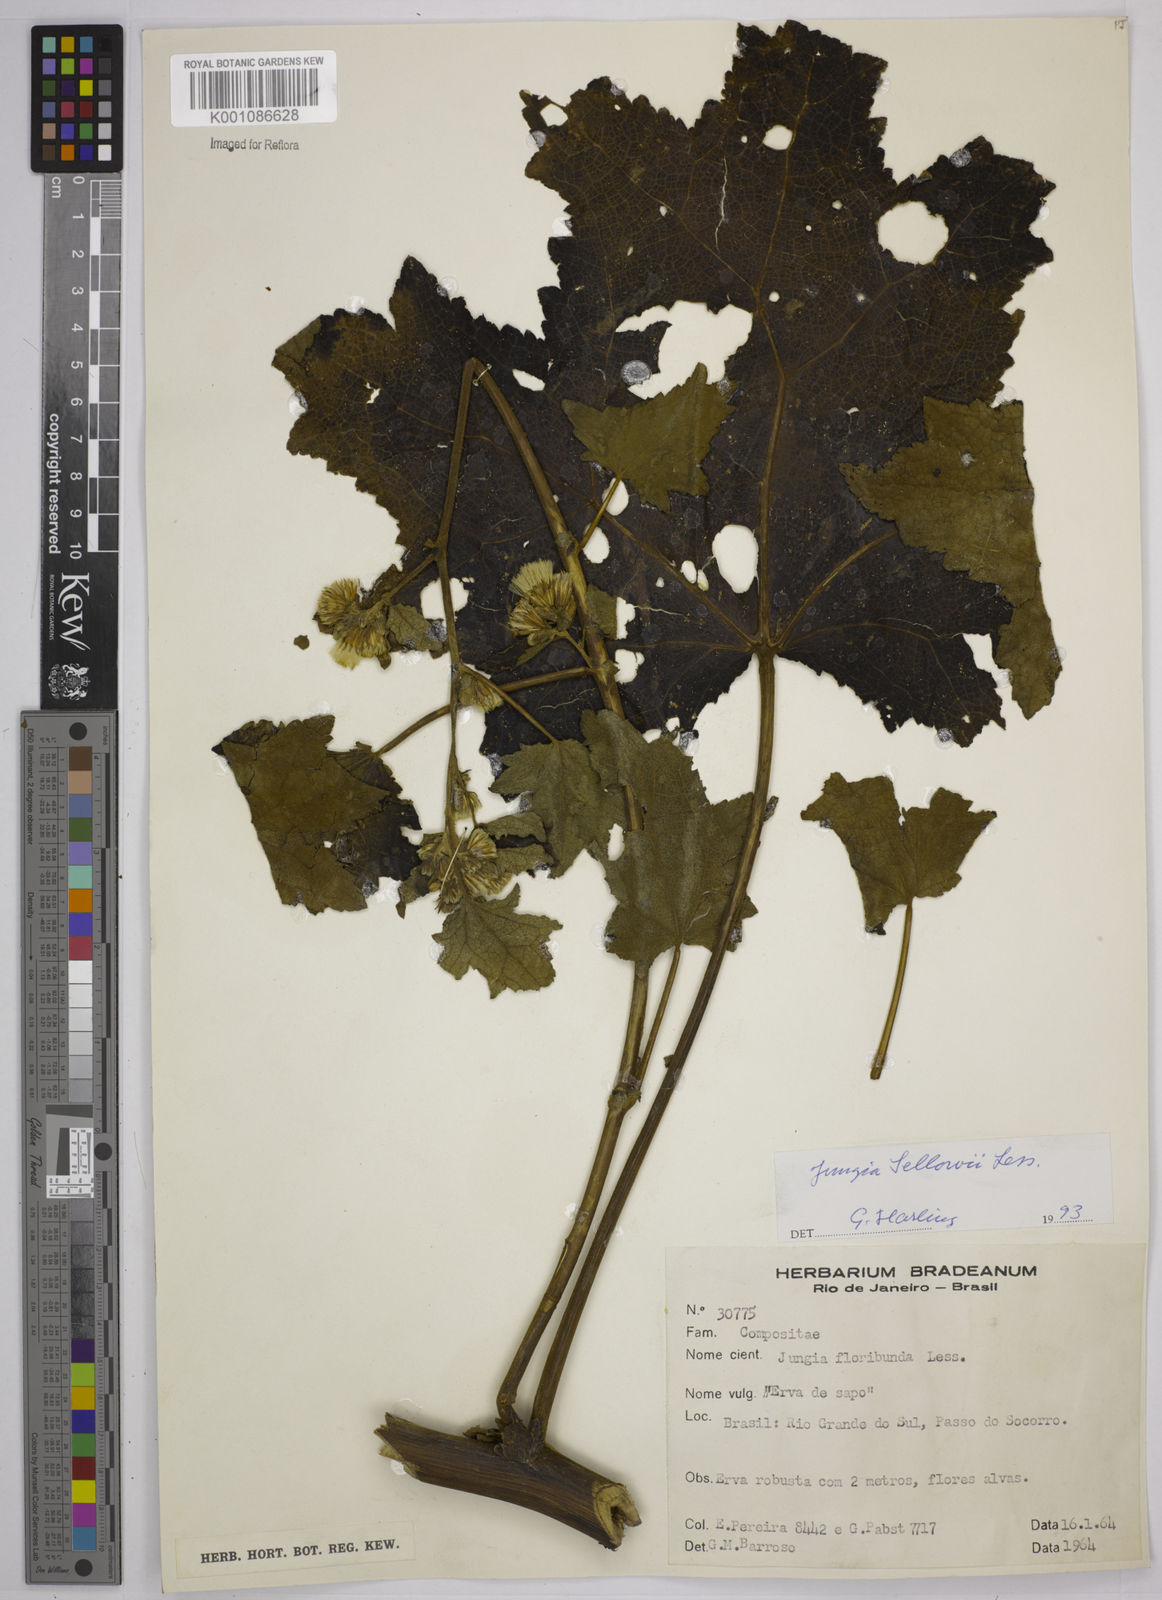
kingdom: Plantae
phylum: Tracheophyta
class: Magnoliopsida
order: Asterales
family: Asteraceae
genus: Jungia
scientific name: Jungia sellowii
